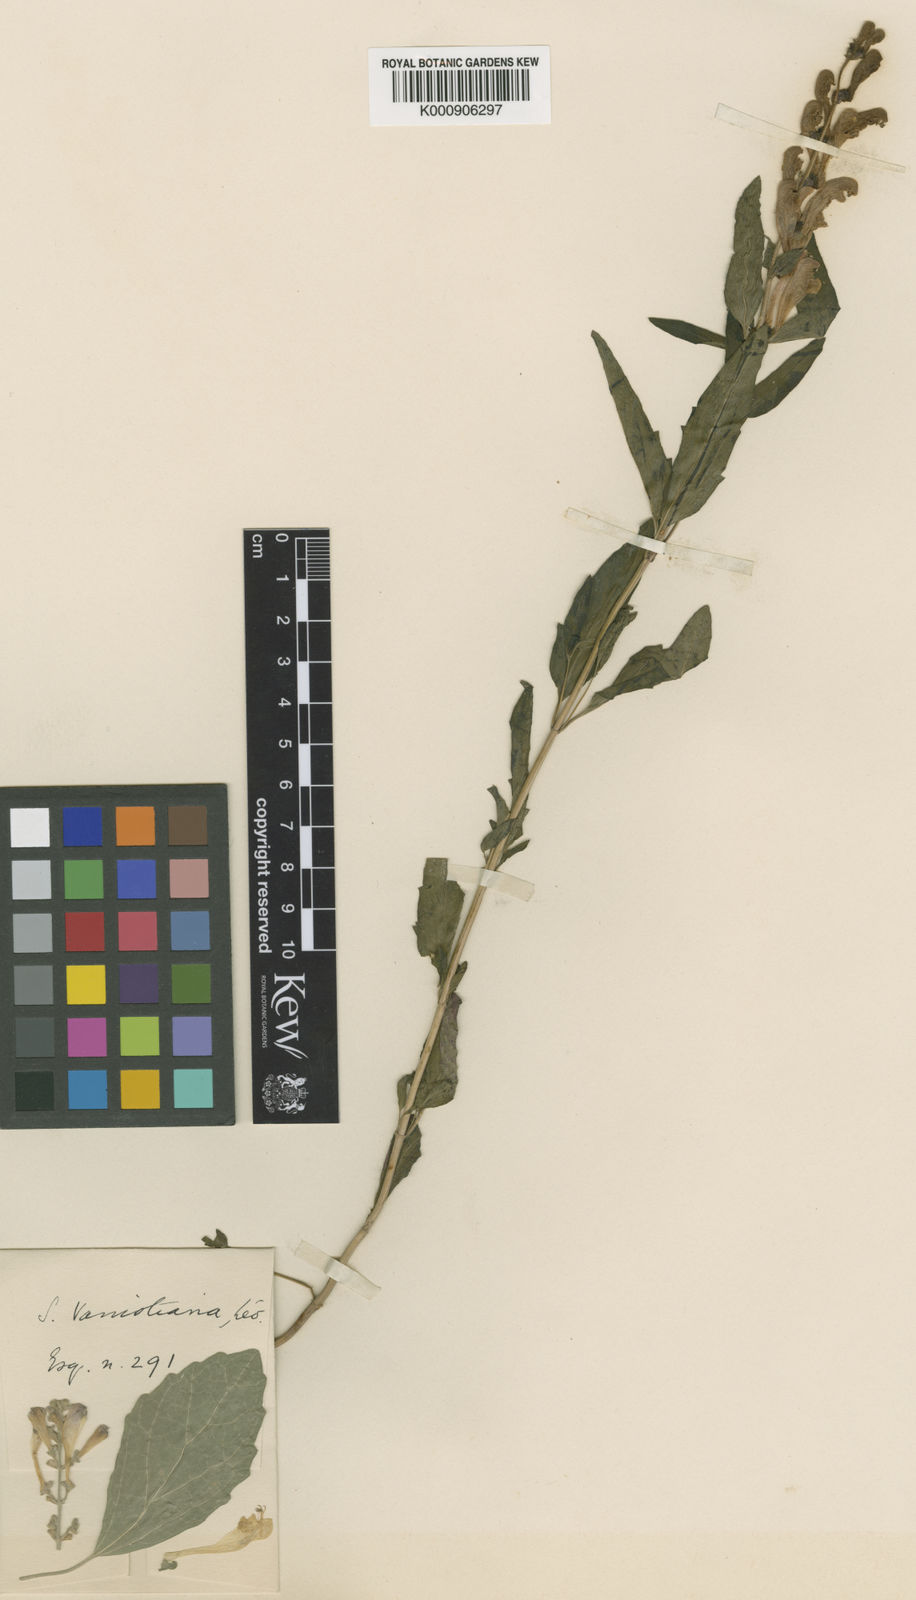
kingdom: Plantae
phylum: Tracheophyta
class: Magnoliopsida
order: Lamiales
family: Lamiaceae
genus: Scutellaria
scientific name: Scutellaria
